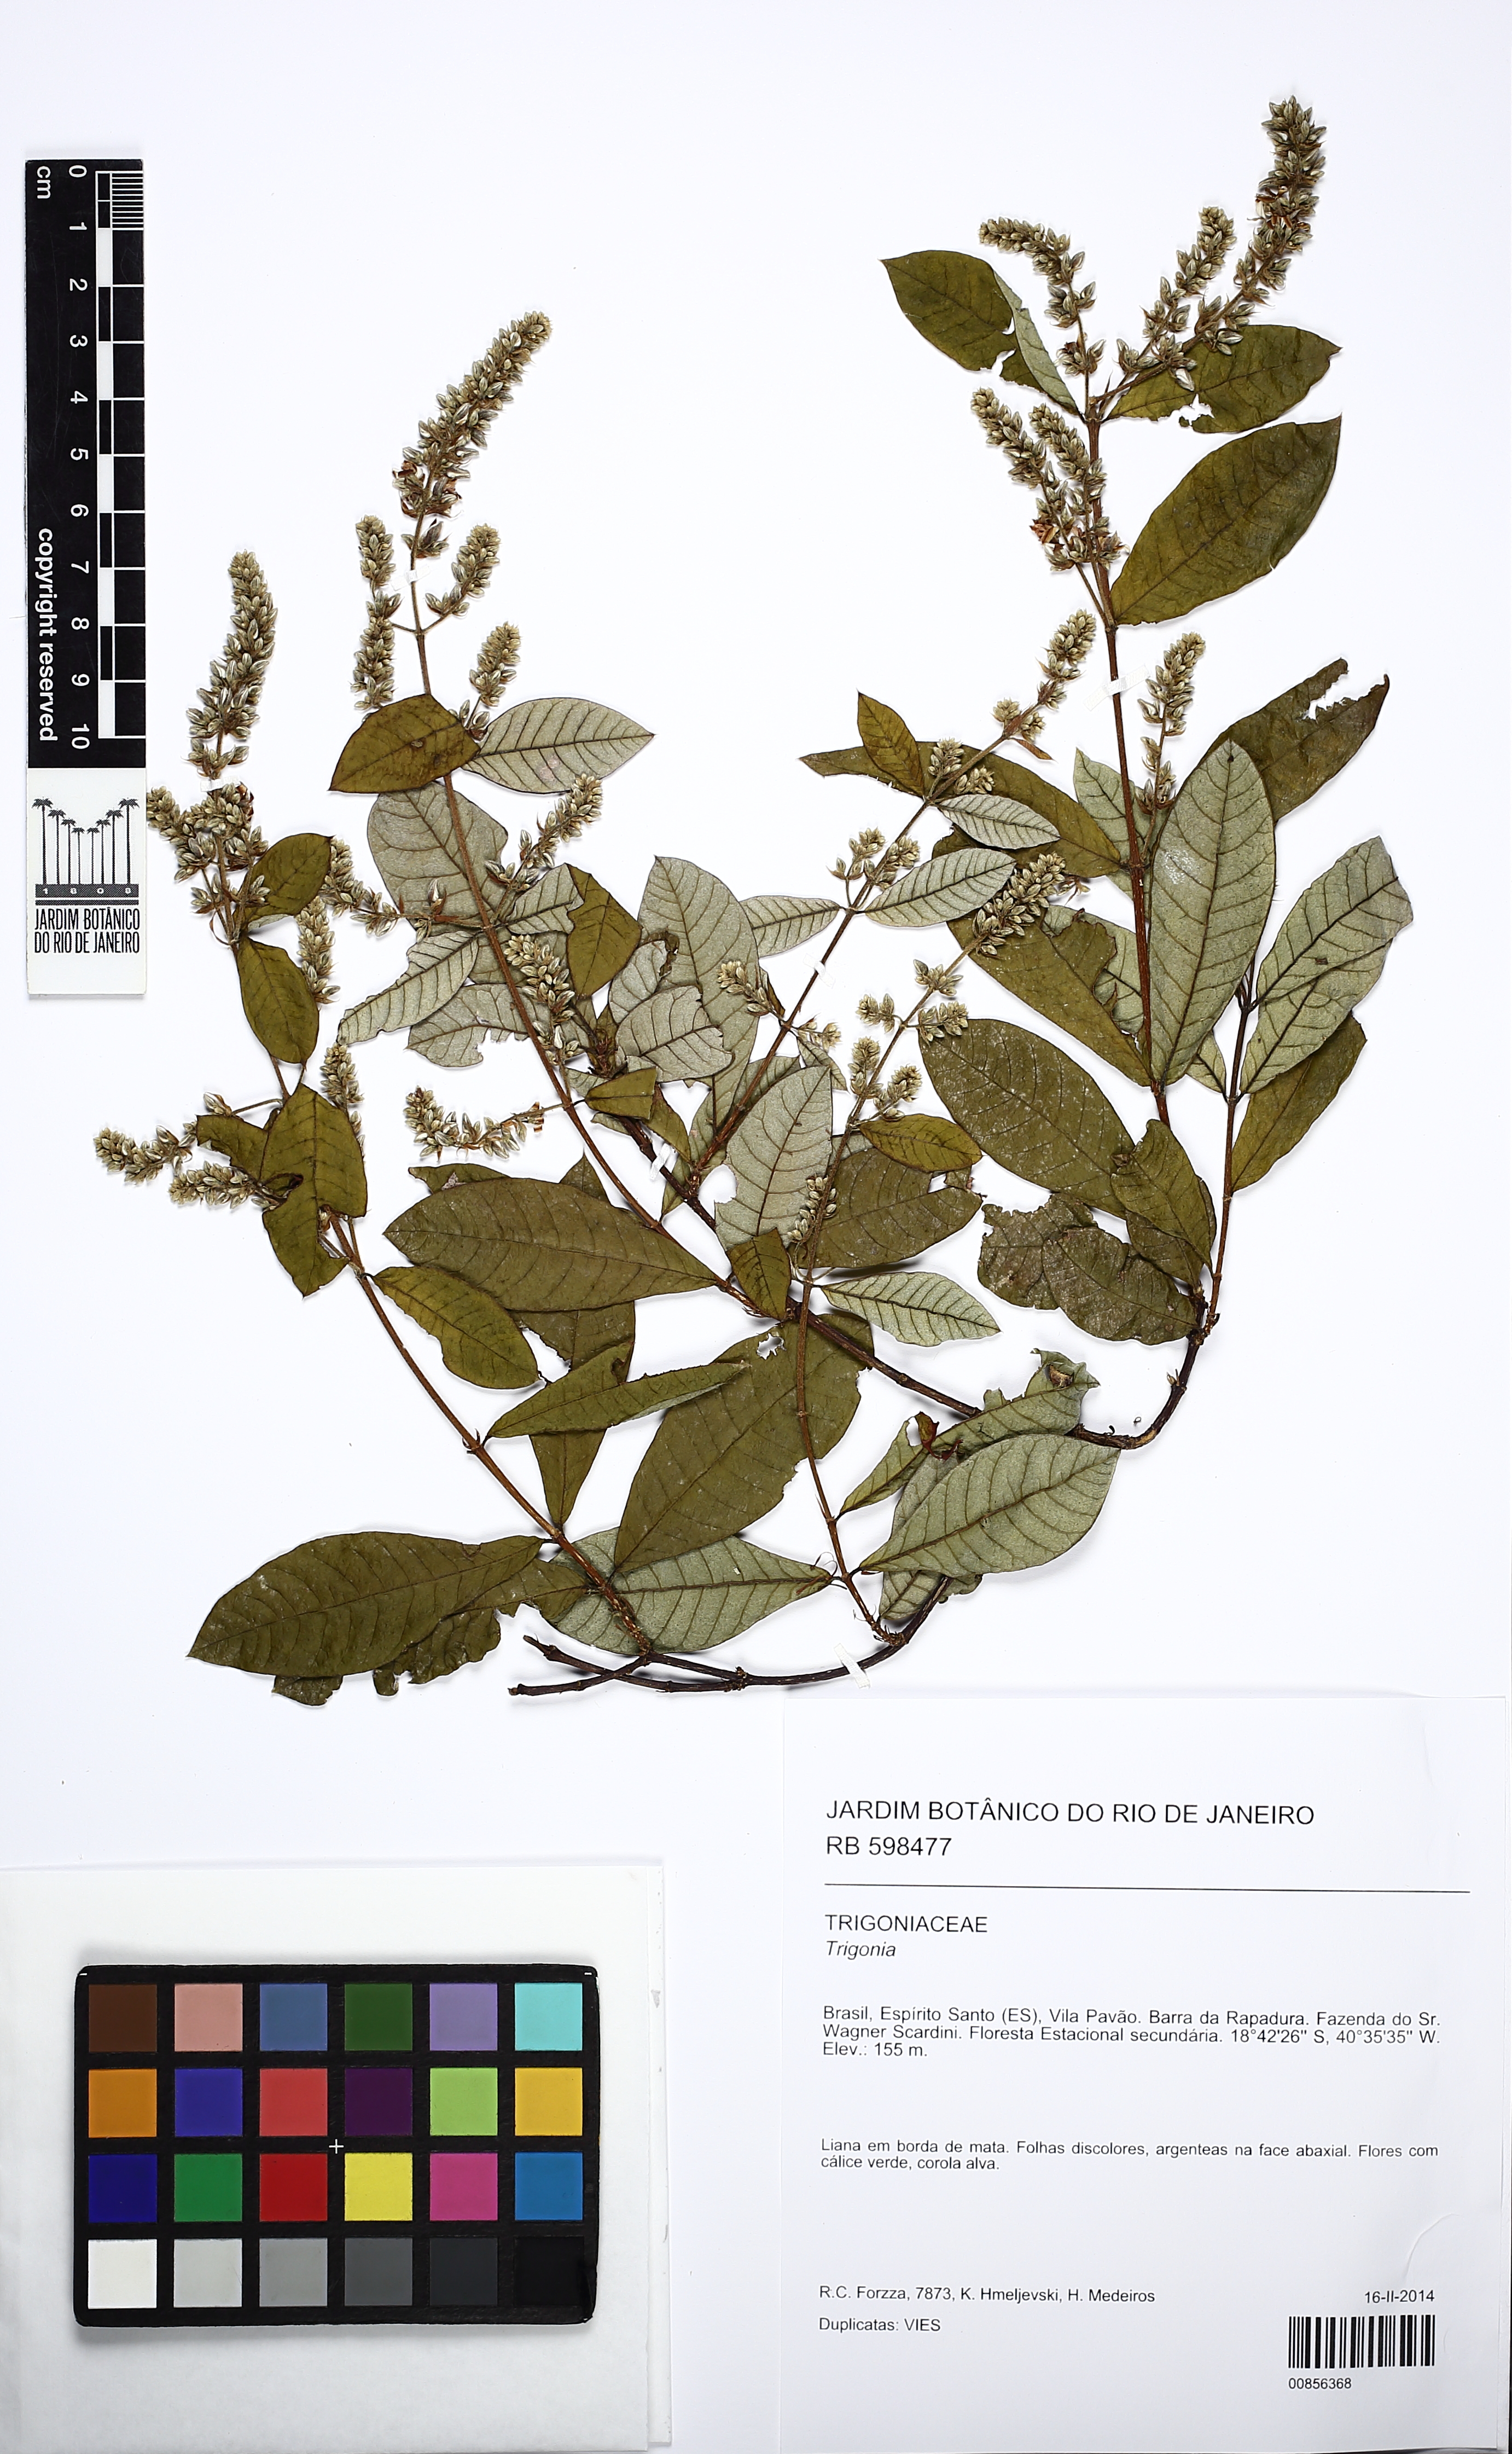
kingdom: Plantae
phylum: Tracheophyta
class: Magnoliopsida
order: Malpighiales
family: Trigoniaceae
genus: Trigonia
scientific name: Trigonia
